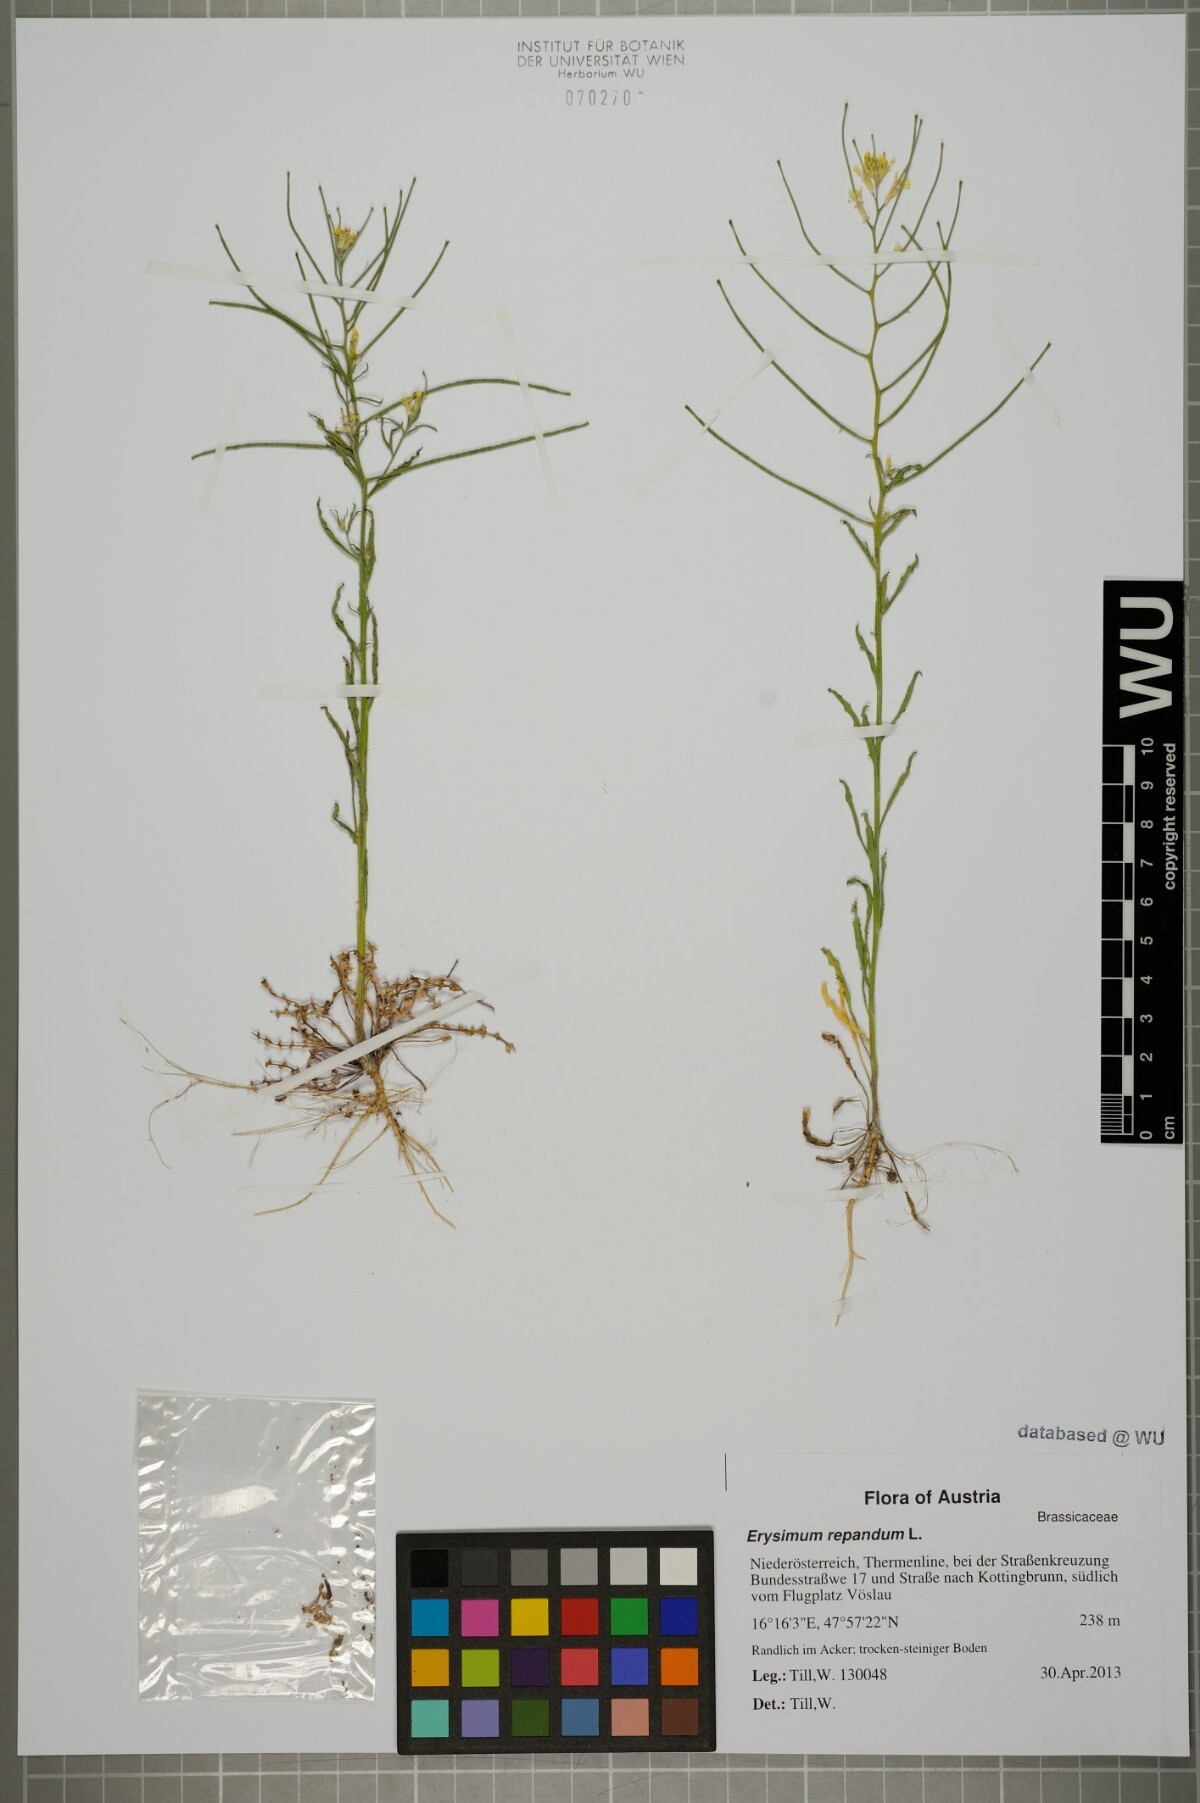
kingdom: Plantae
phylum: Tracheophyta
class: Magnoliopsida
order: Brassicales
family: Brassicaceae
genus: Erysimum
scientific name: Erysimum repandum
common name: Spreading wallflower
